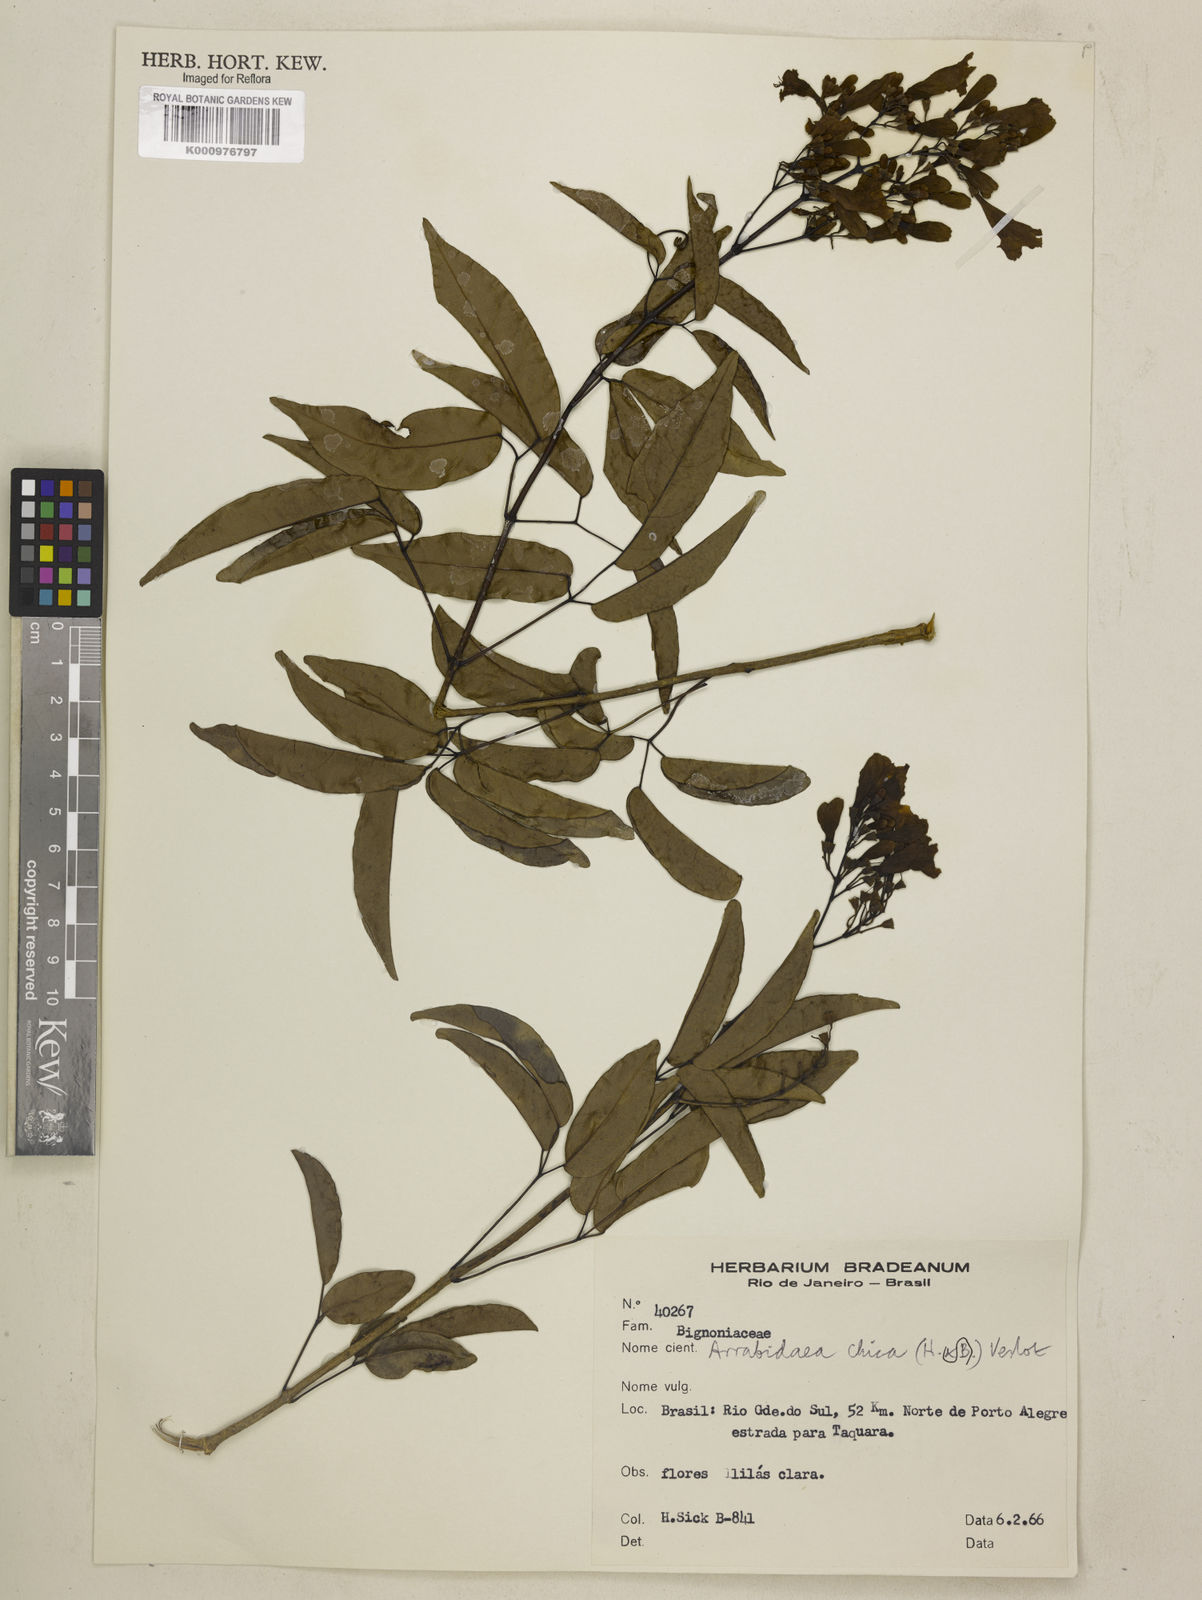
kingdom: Plantae
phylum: Tracheophyta
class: Magnoliopsida
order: Lamiales
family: Bignoniaceae
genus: Fridericia
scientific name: Fridericia chica
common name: Cricketvine
